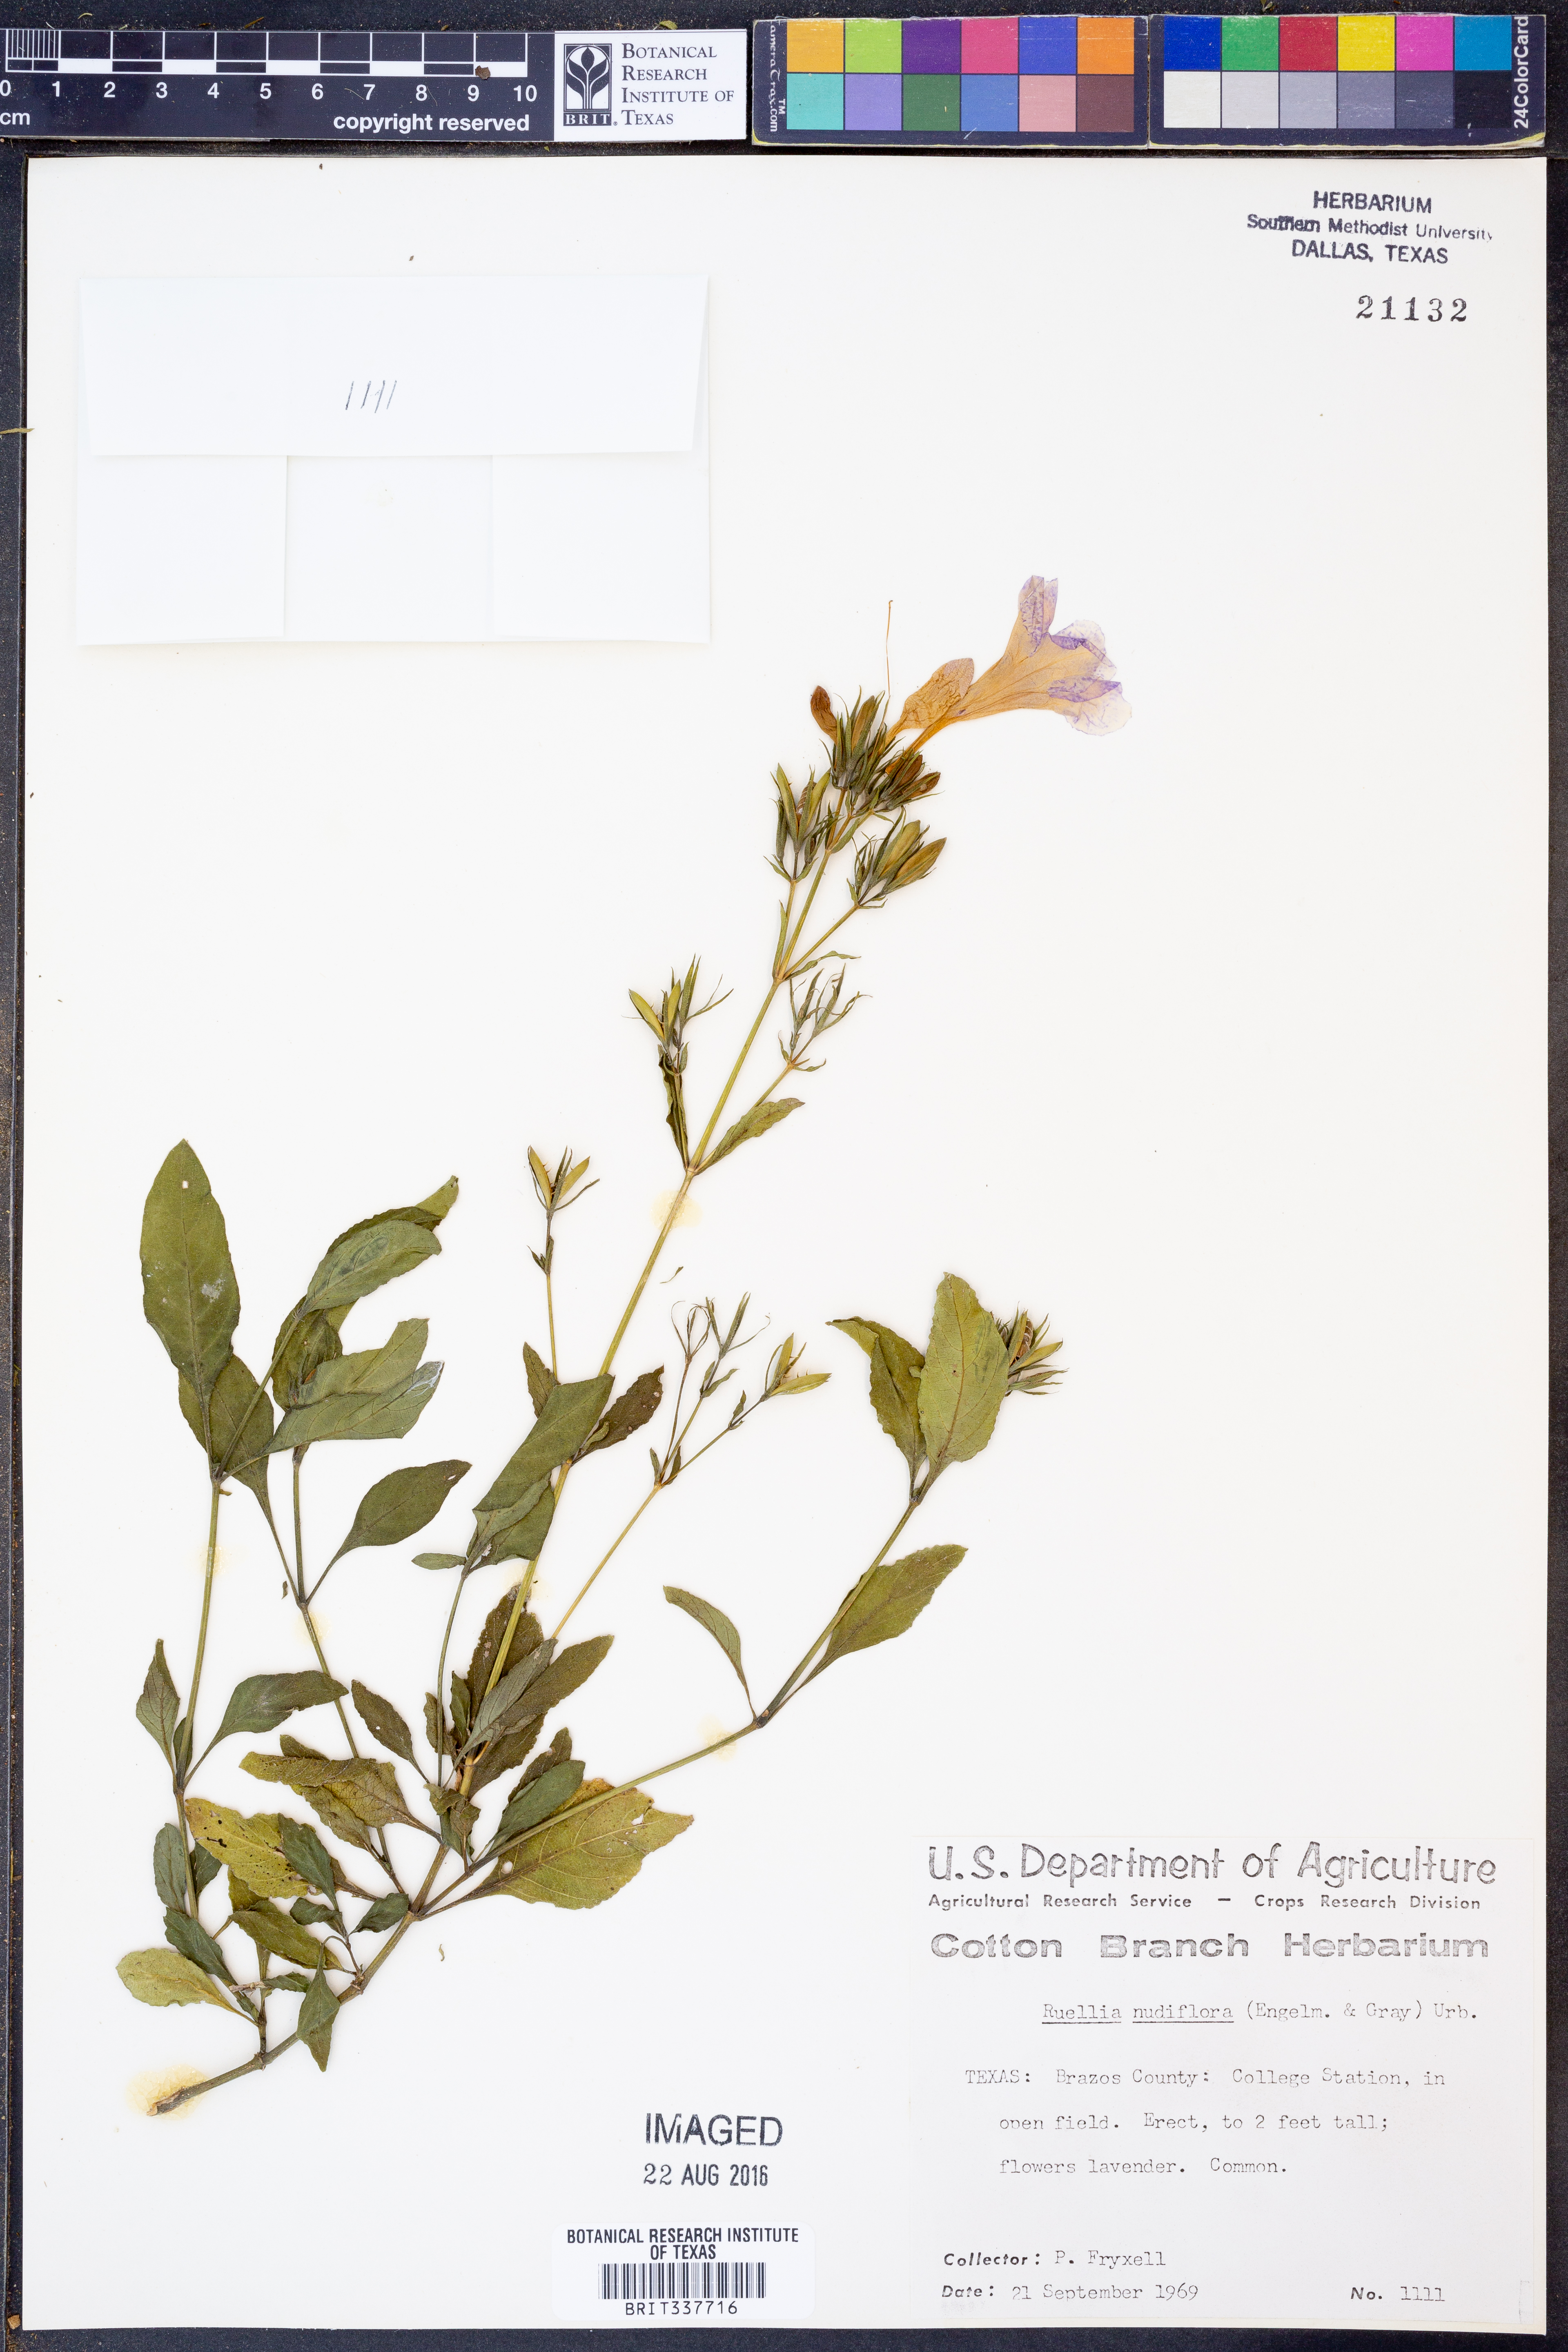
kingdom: Plantae
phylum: Tracheophyta
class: Magnoliopsida
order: Lamiales
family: Acanthaceae
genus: Ruellia
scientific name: Ruellia ciliatiflora
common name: Hairyflower wild petunia
